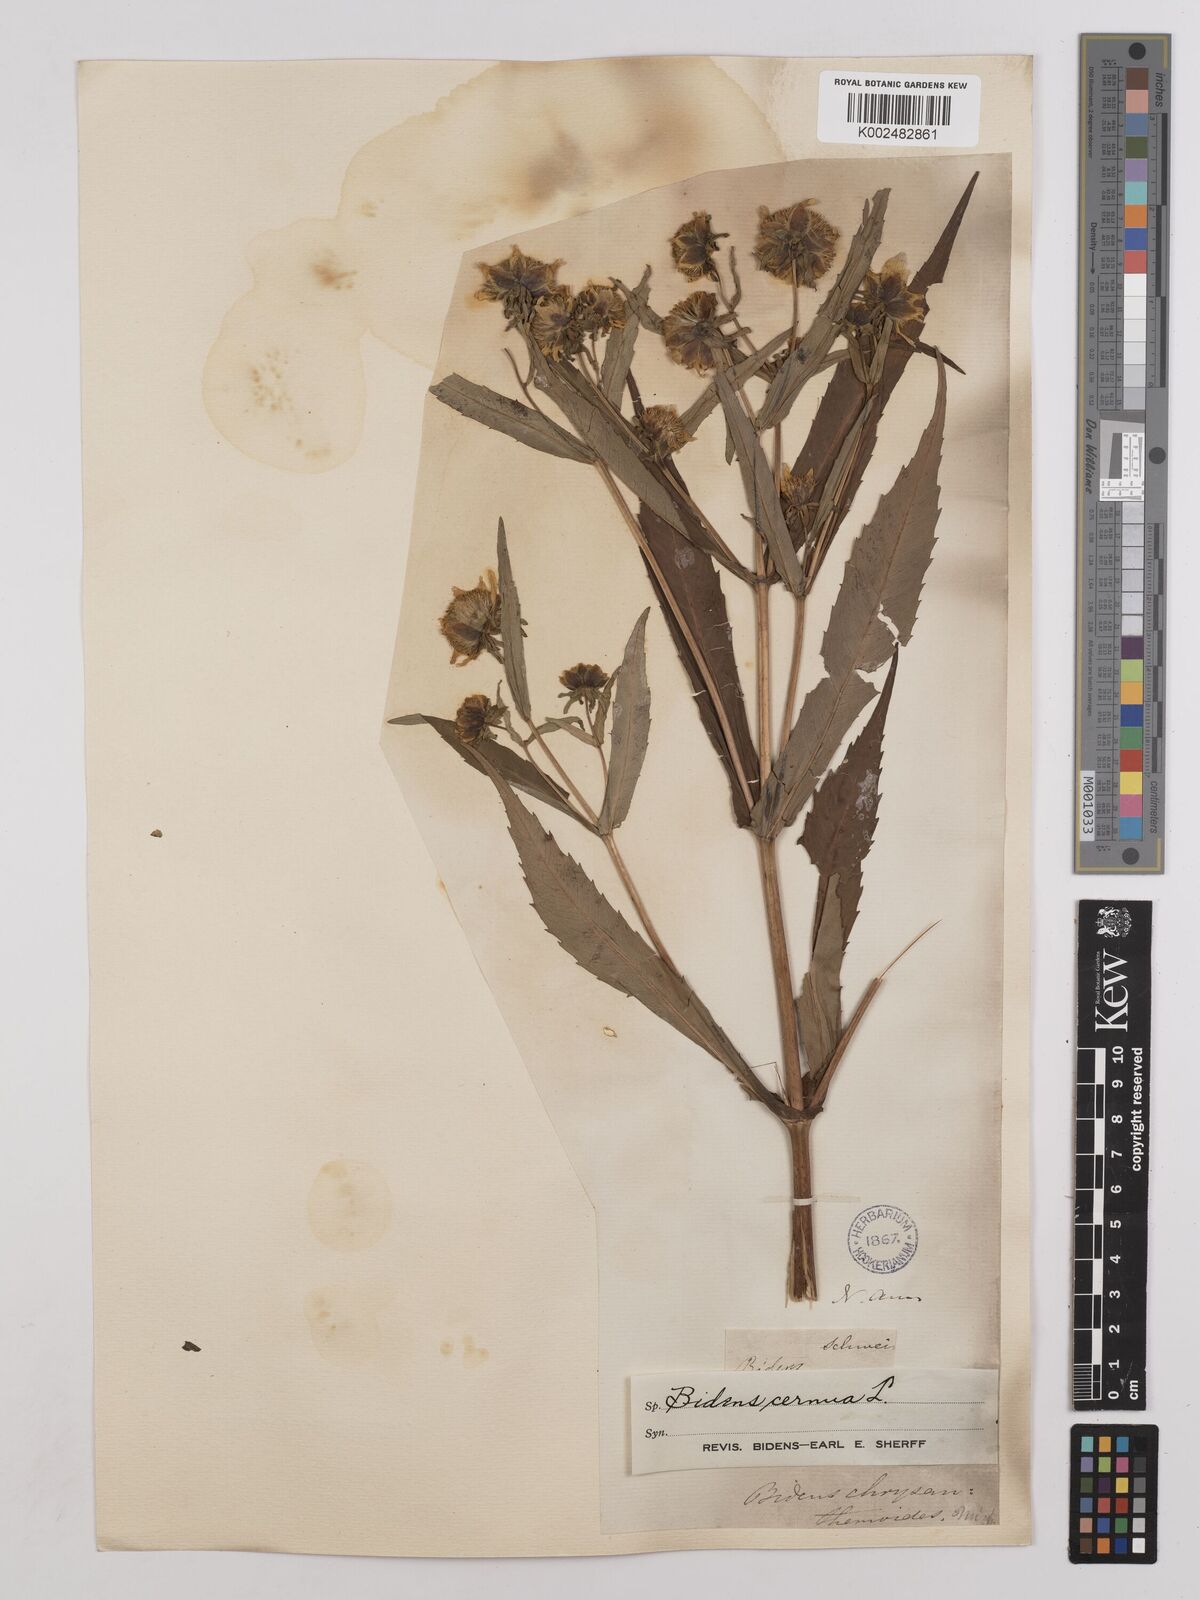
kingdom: Plantae
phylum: Tracheophyta
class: Magnoliopsida
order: Asterales
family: Asteraceae
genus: Bidens
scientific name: Bidens
